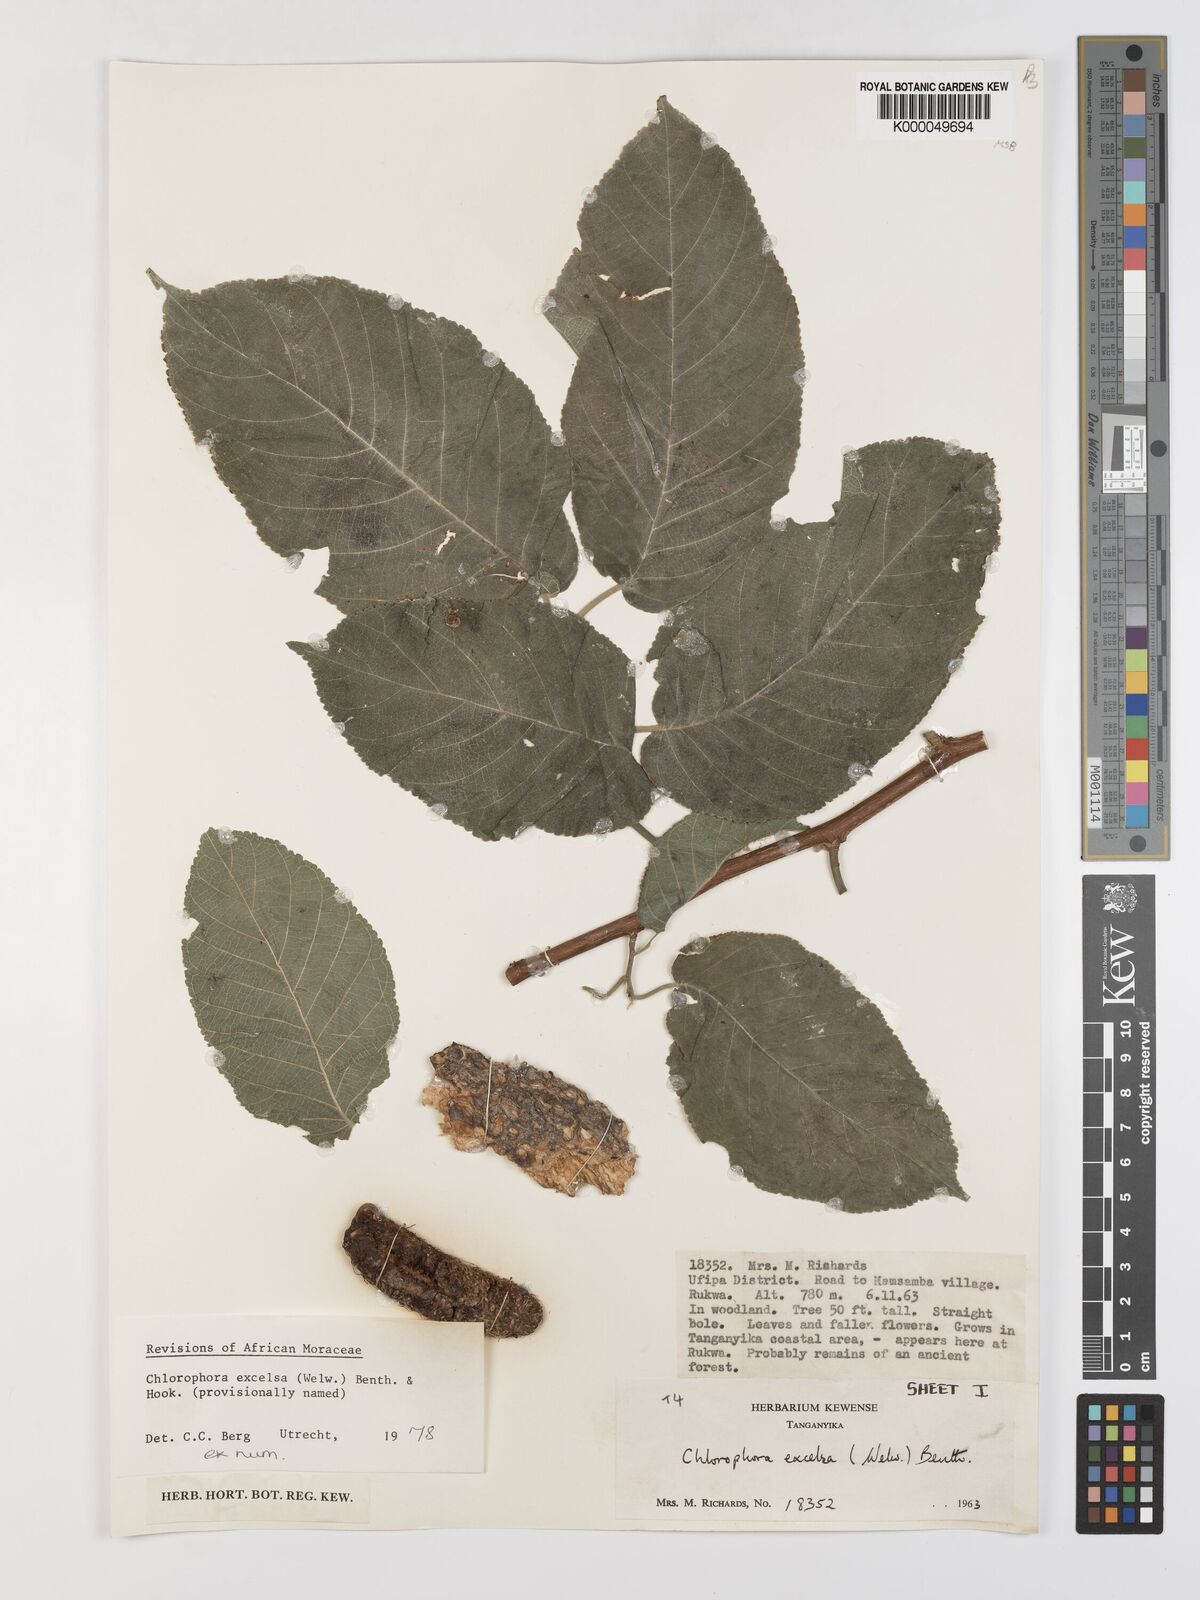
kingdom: Plantae
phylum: Tracheophyta
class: Magnoliopsida
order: Rosales
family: Moraceae
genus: Milicia
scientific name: Milicia excelsa
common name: African teak
